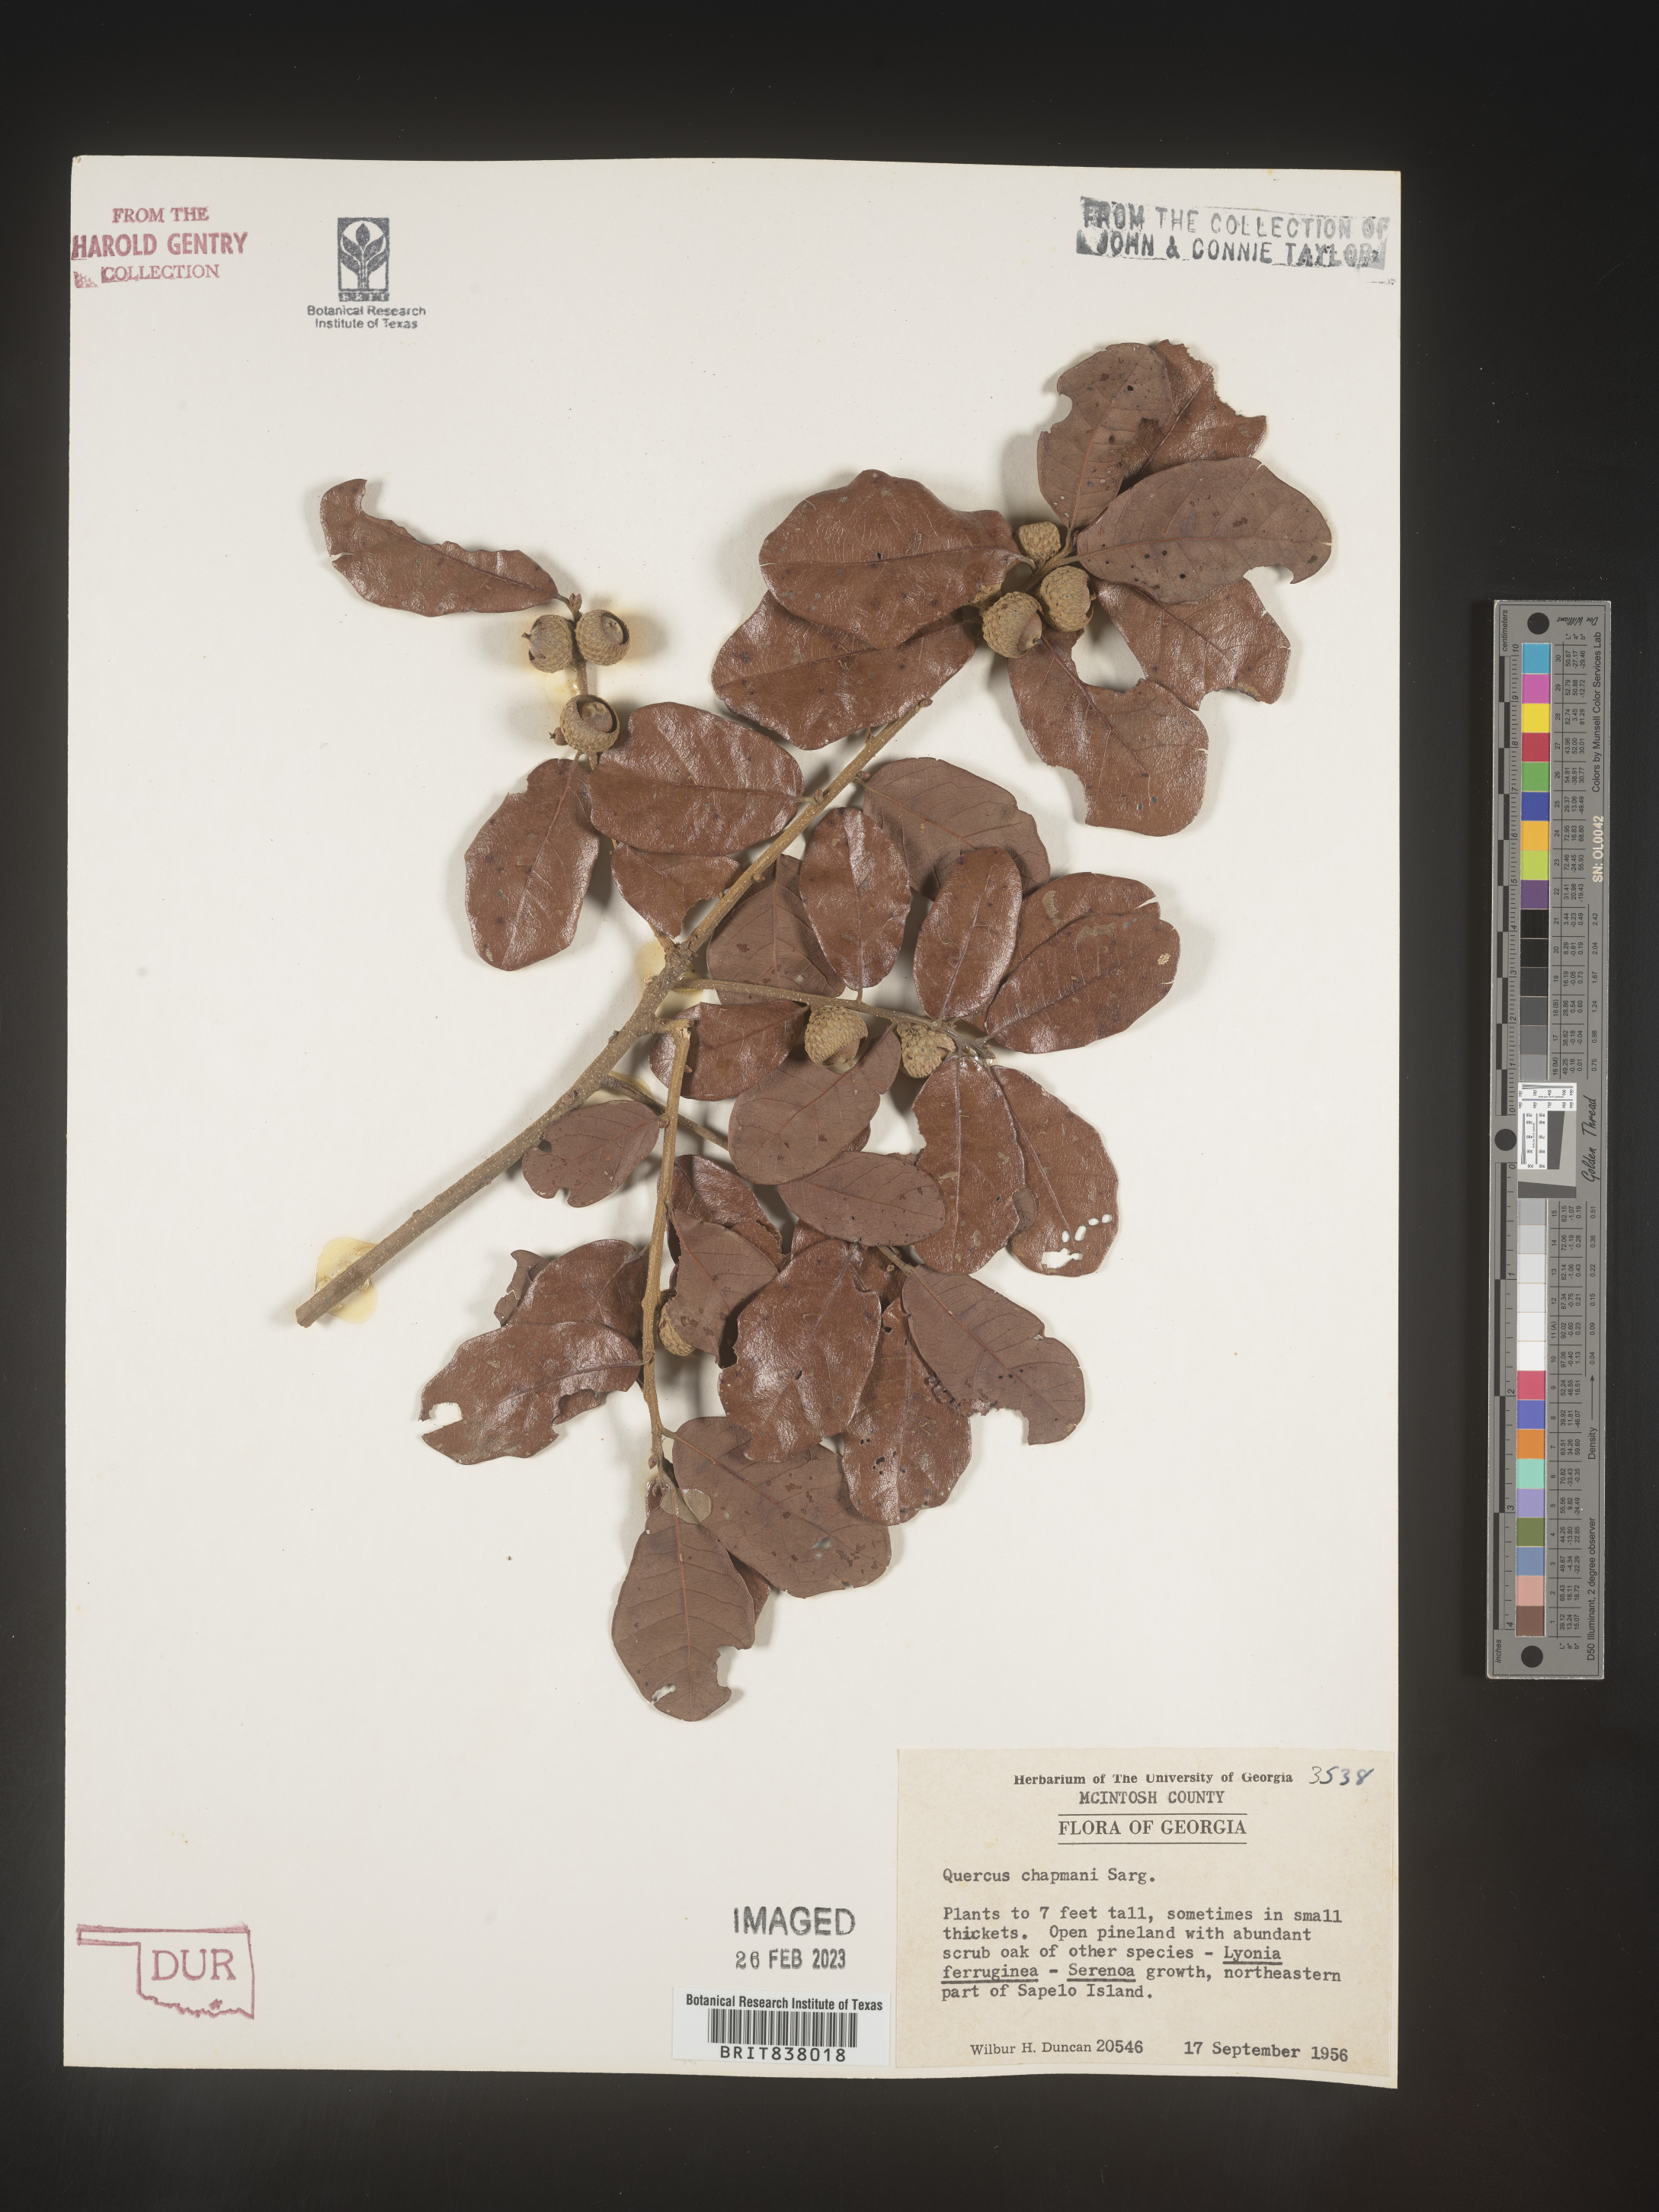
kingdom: Plantae
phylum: Tracheophyta
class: Magnoliopsida
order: Fagales
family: Fagaceae
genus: Quercus
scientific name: Quercus
